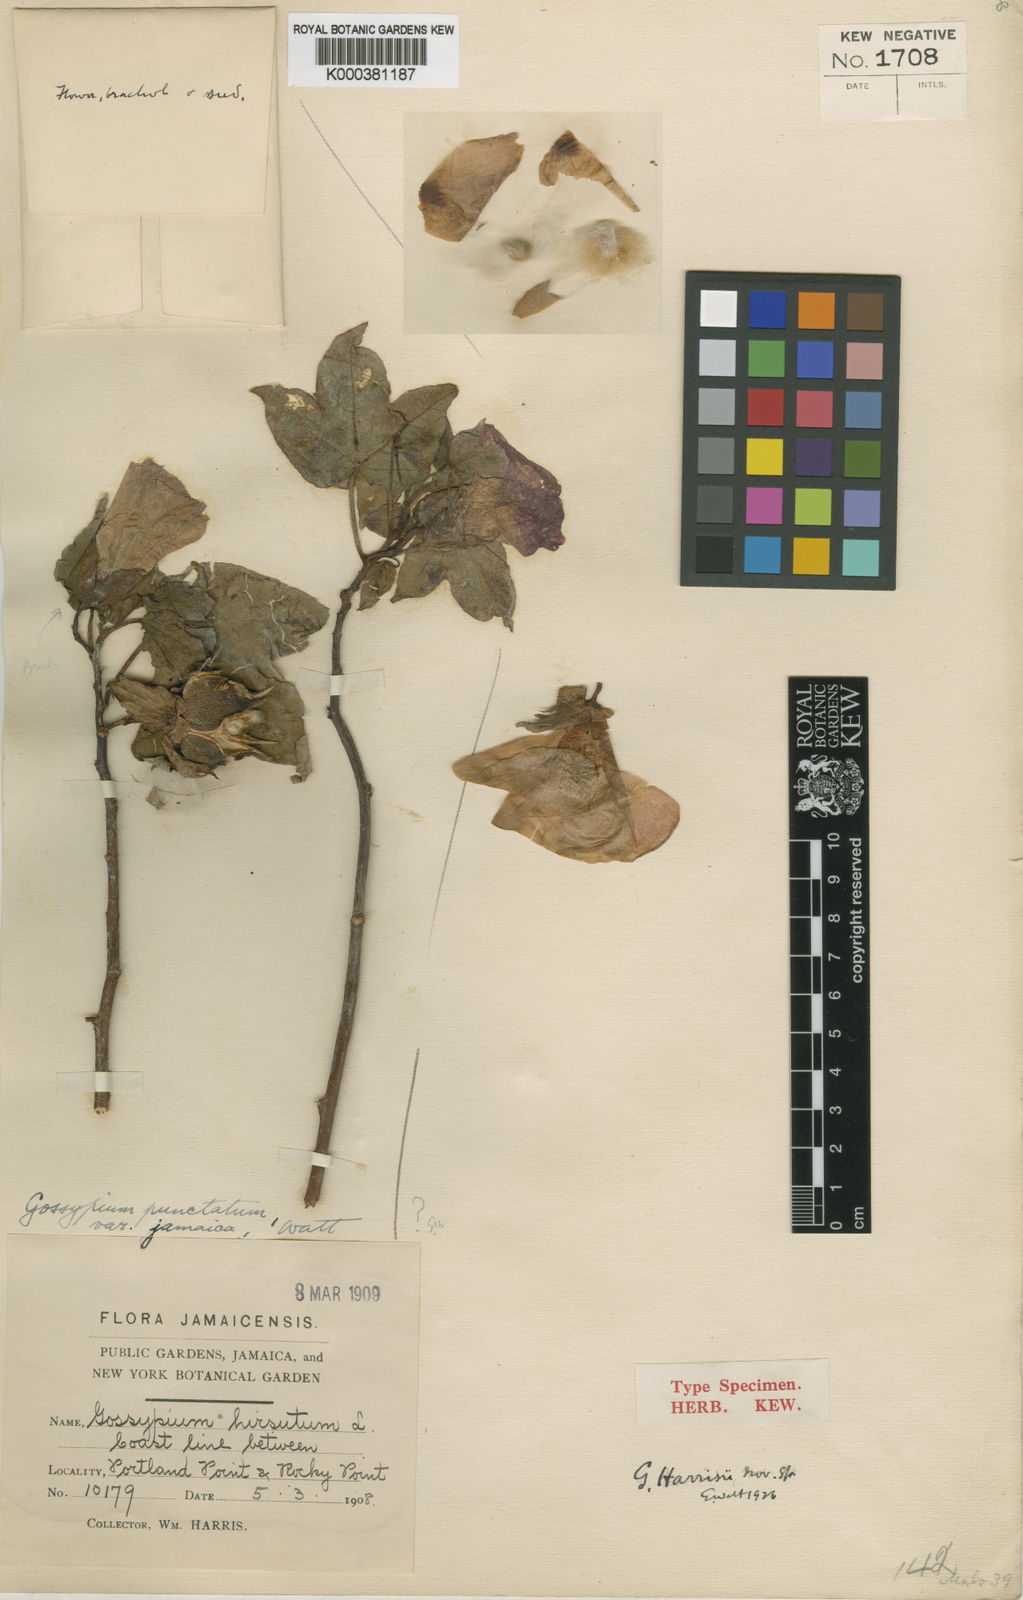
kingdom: Plantae
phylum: Tracheophyta
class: Magnoliopsida
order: Malvales
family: Malvaceae
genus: Gossypium
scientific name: Gossypium hirsutum
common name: Cotton
